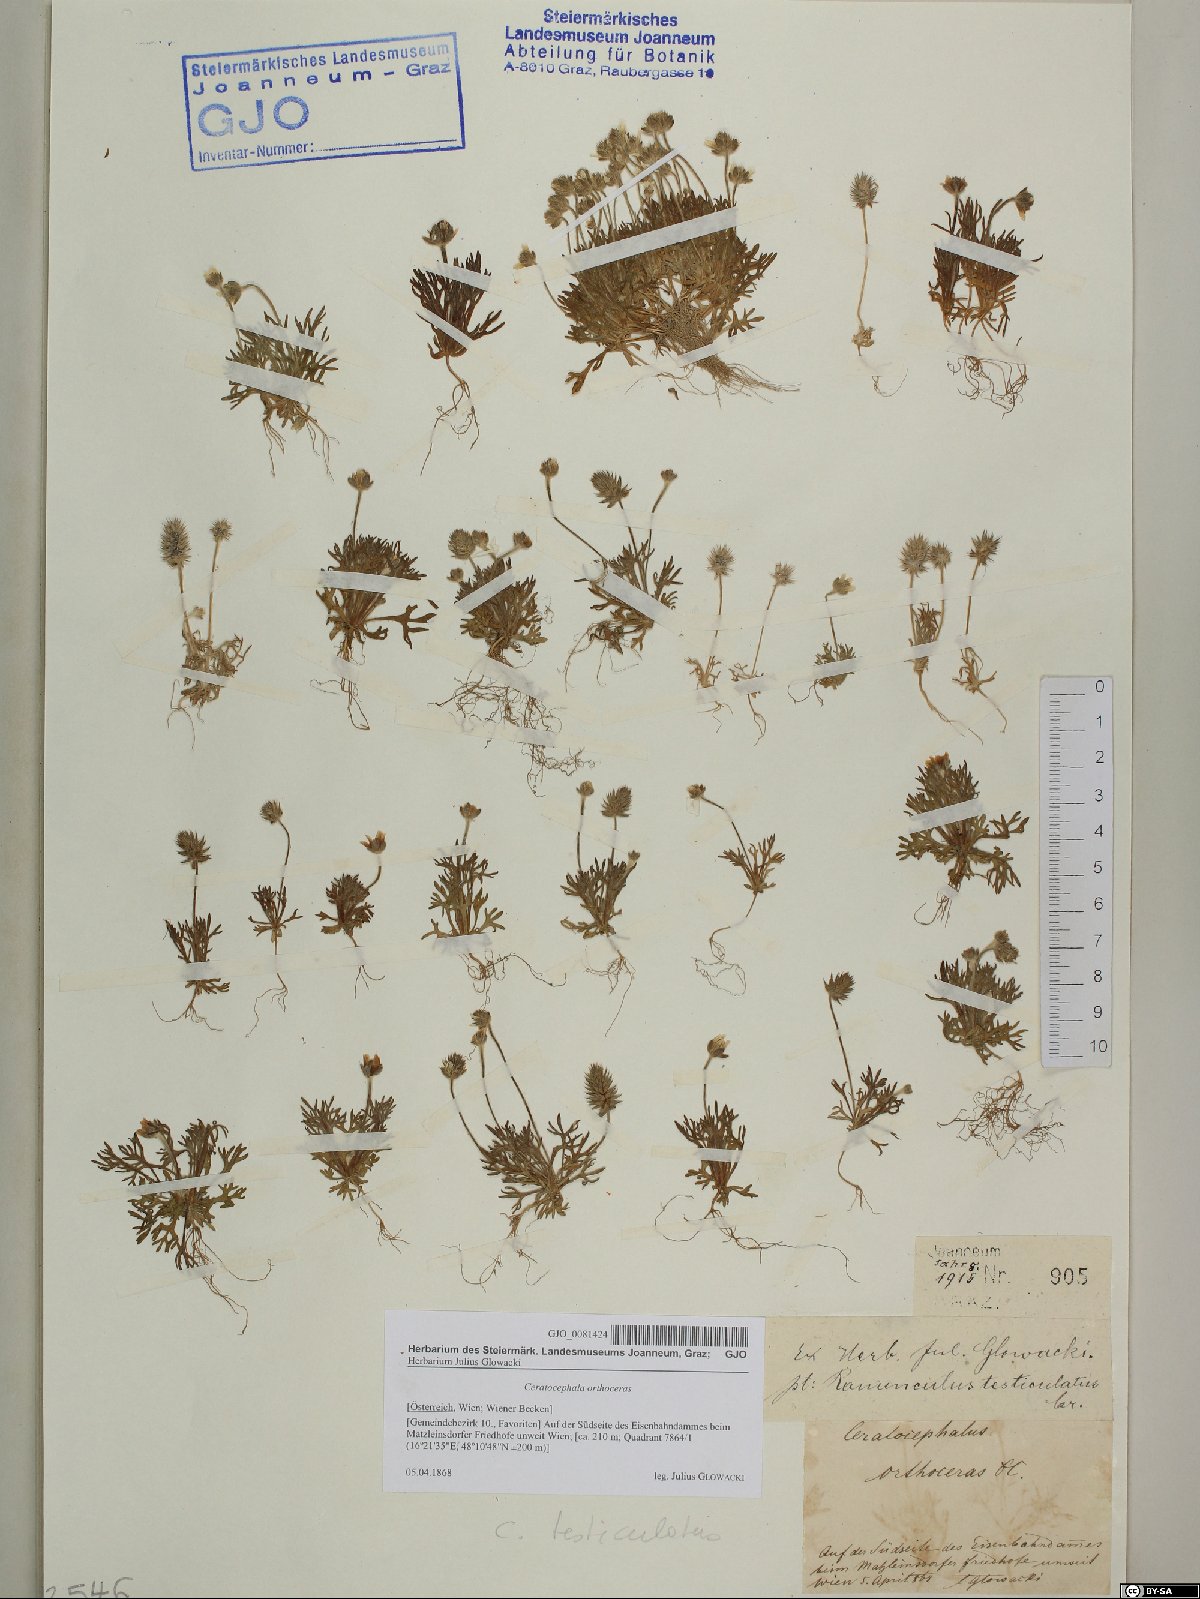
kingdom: Plantae
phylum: Tracheophyta
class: Magnoliopsida
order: Ranunculales
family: Ranunculaceae
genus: Ceratocephala
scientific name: Ceratocephala orthoceras
